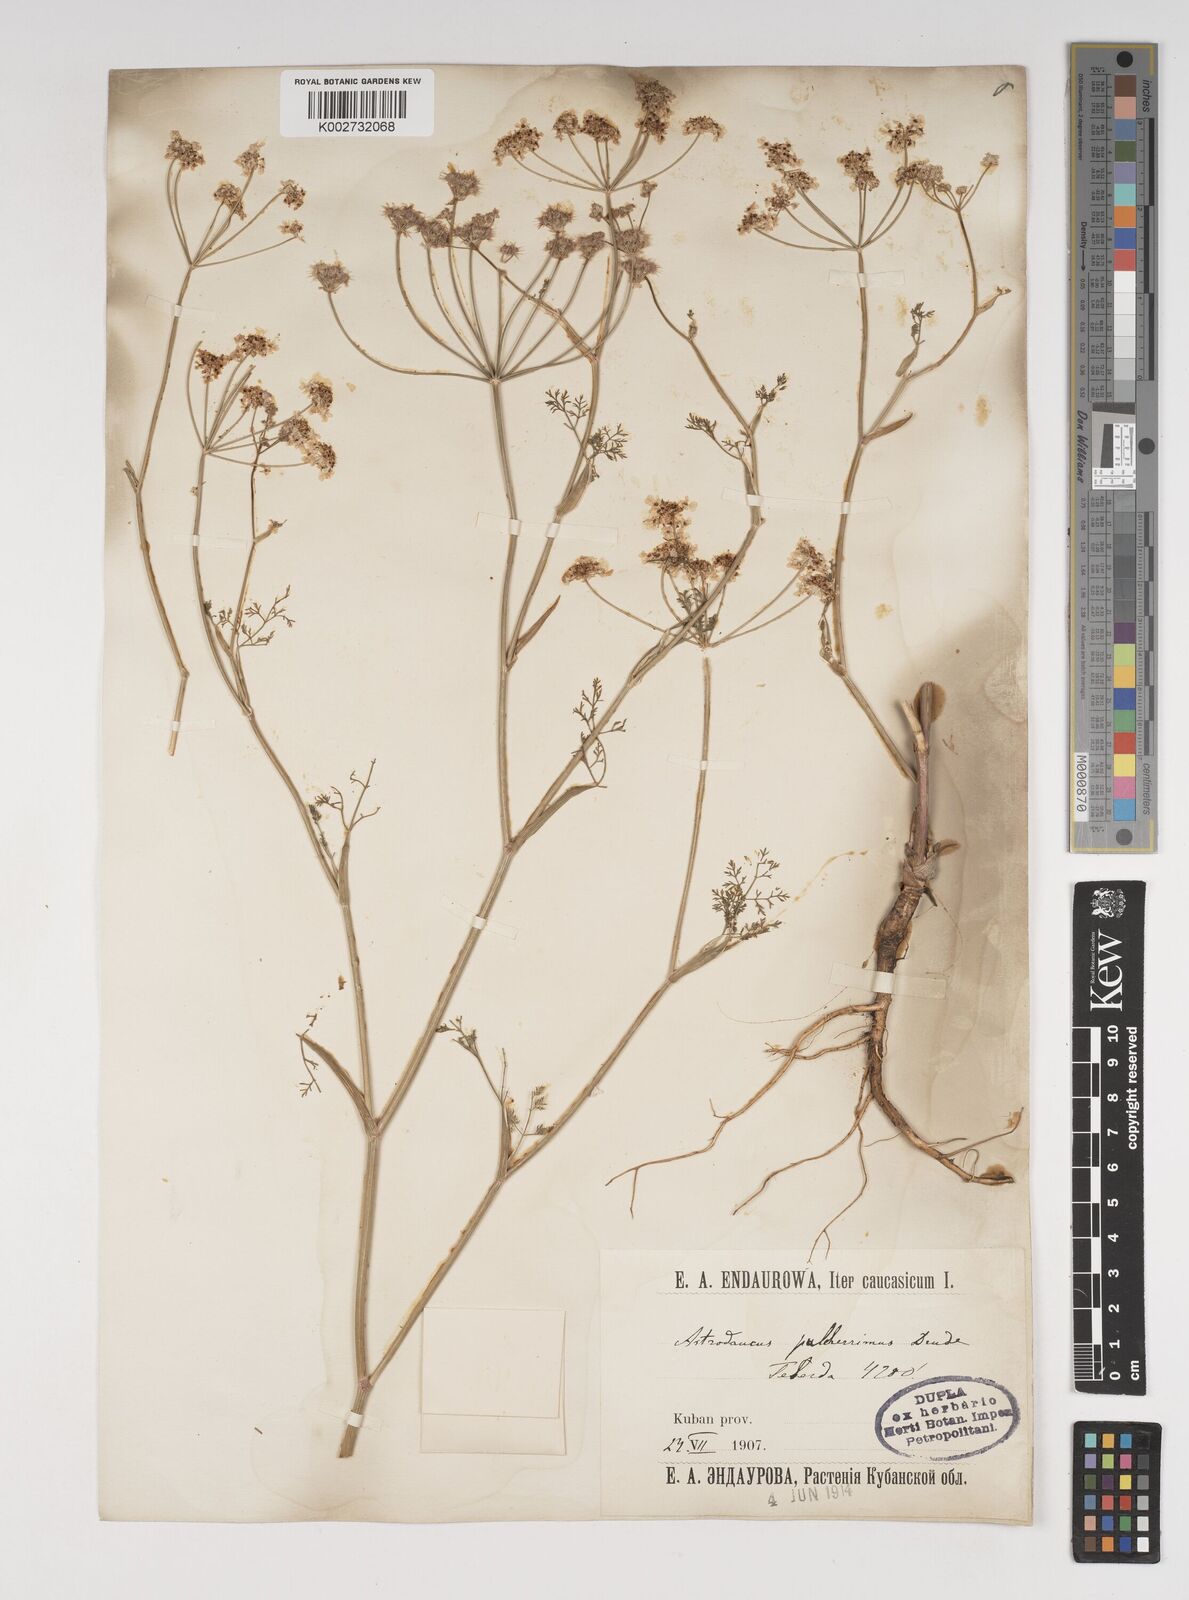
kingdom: Plantae
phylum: Tracheophyta
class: Magnoliopsida
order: Apiales
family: Apiaceae
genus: Astrodaucus
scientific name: Astrodaucus
